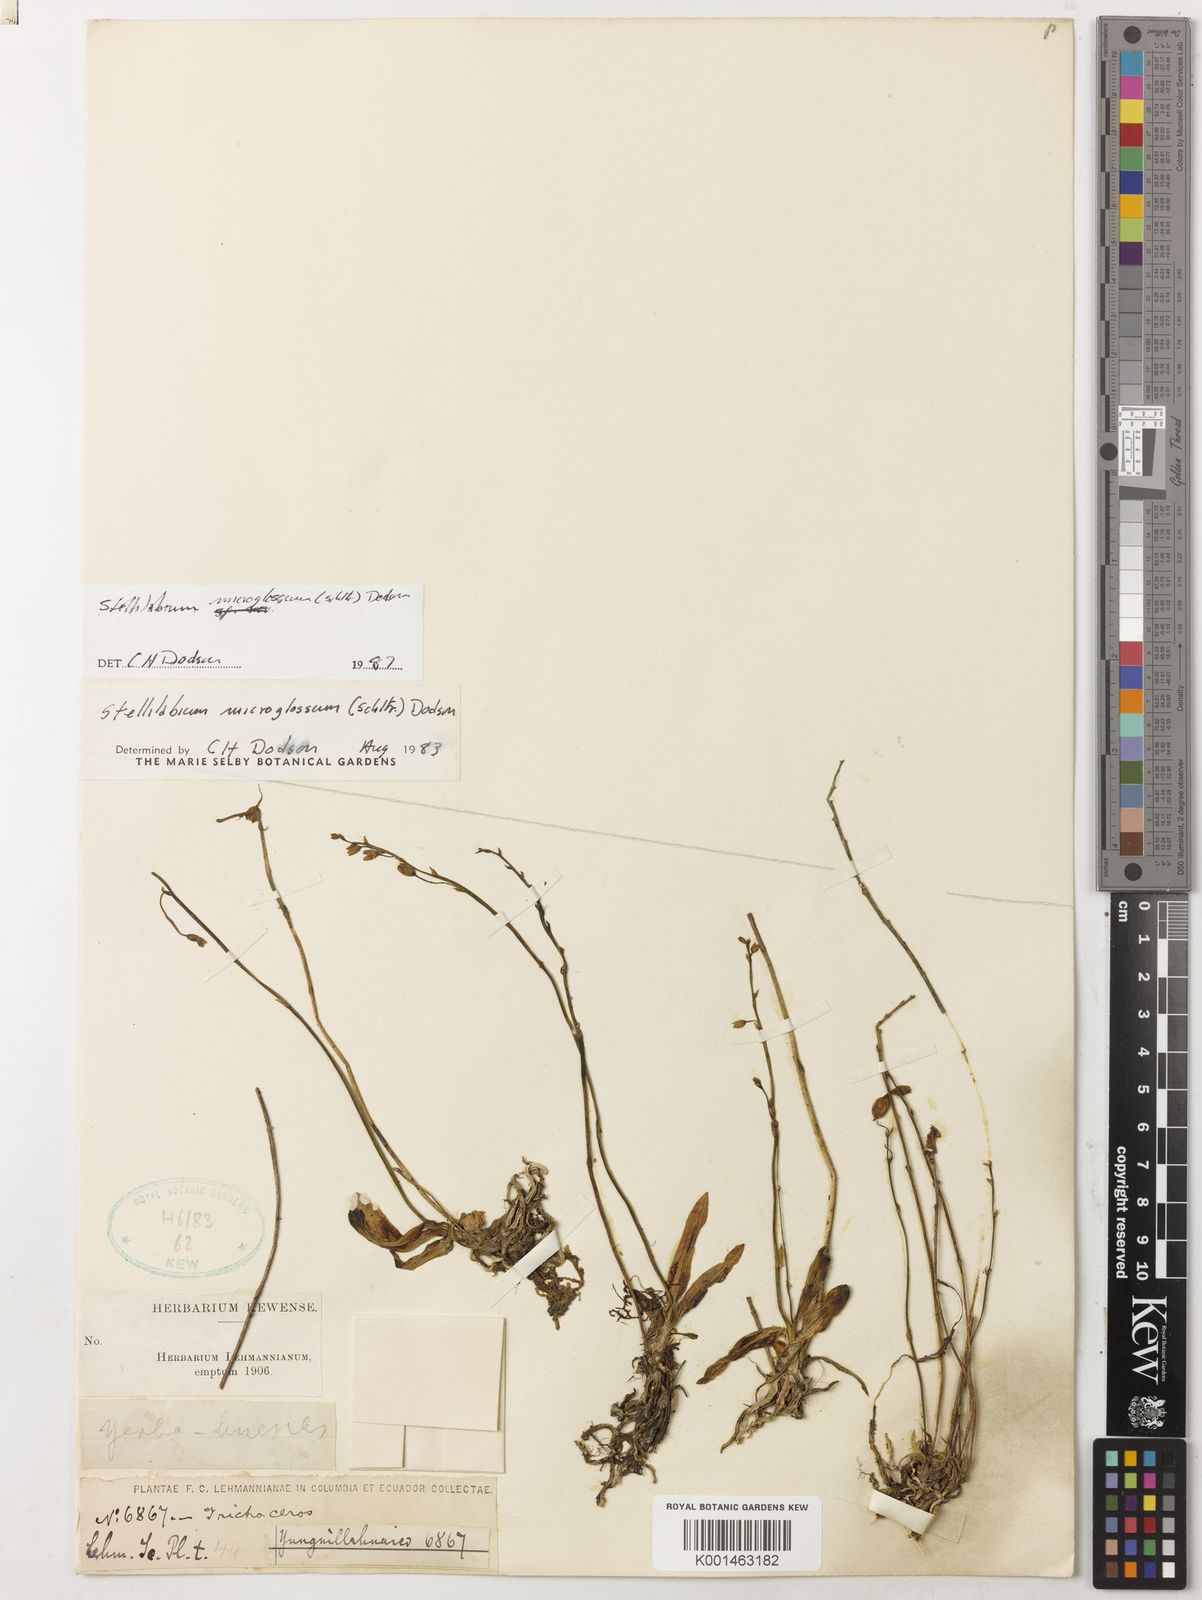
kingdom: Plantae
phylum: Tracheophyta
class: Liliopsida
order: Asparagales
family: Orchidaceae
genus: Telipogon
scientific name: Telipogon microglossus
